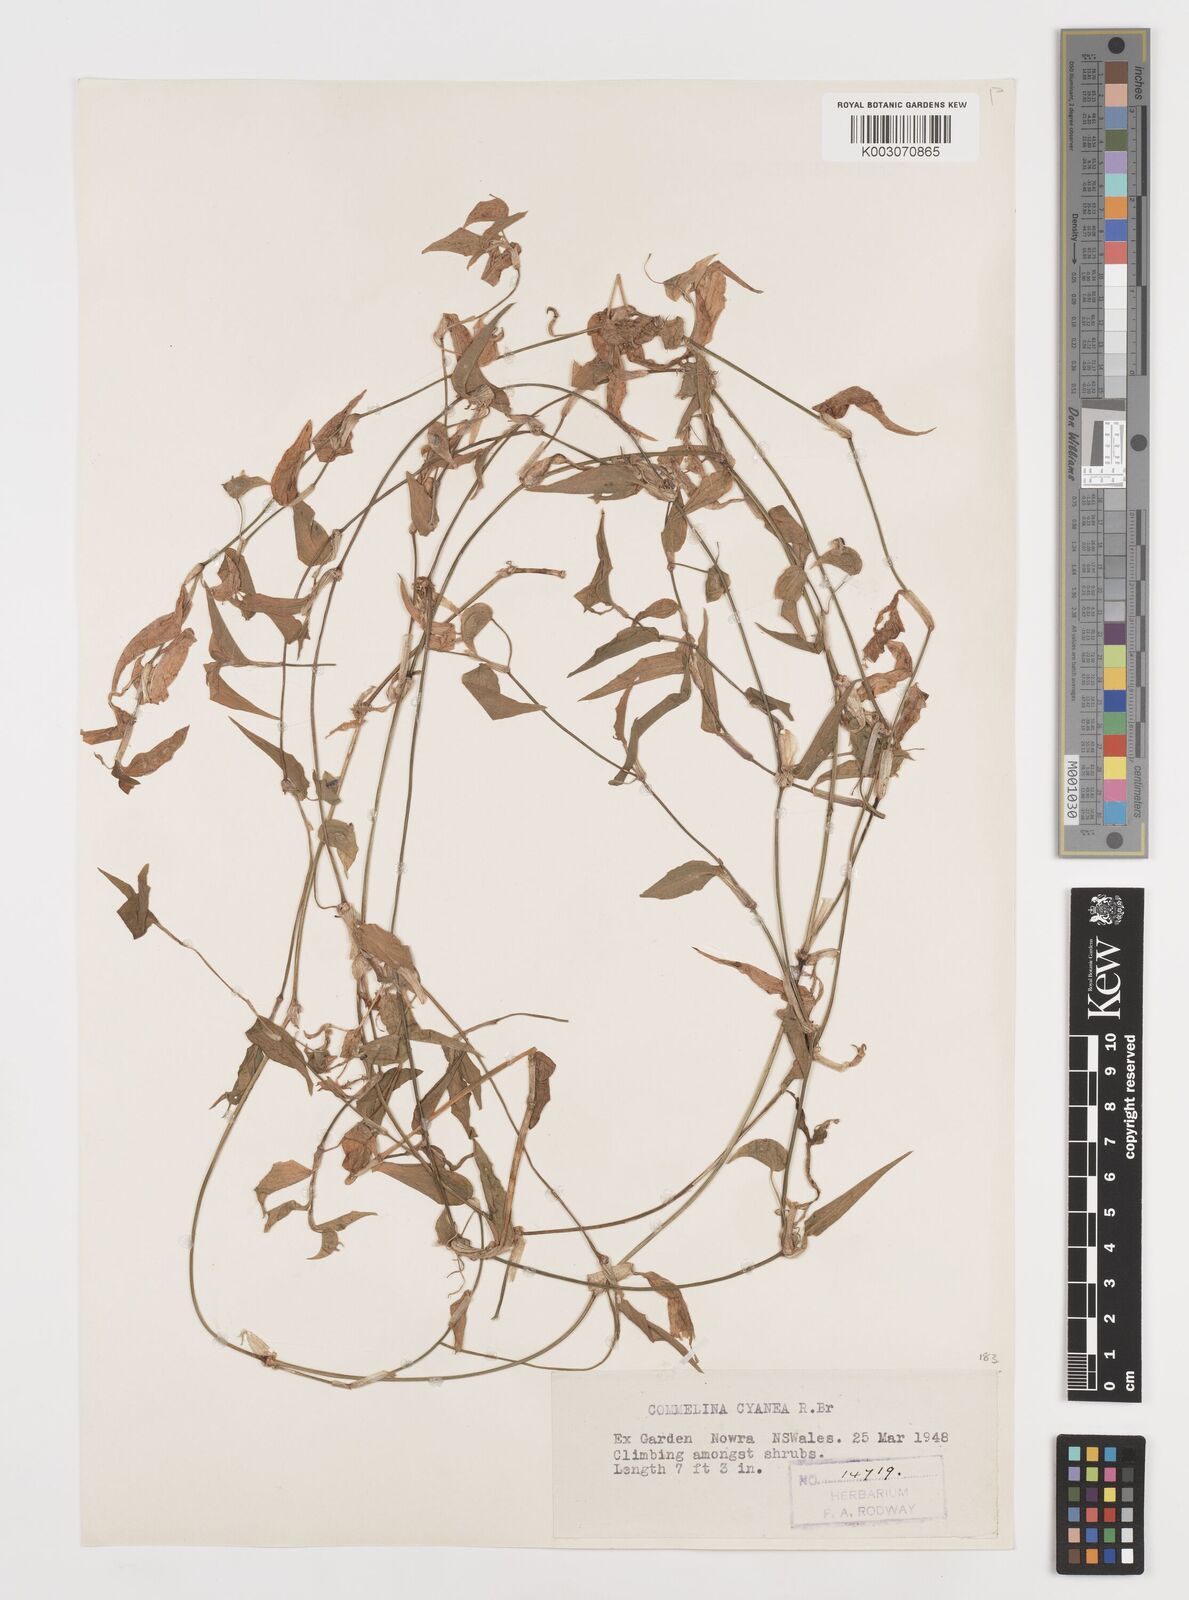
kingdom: Plantae
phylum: Tracheophyta
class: Liliopsida
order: Commelinales
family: Commelinaceae
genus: Commelina
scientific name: Commelina cyanea
